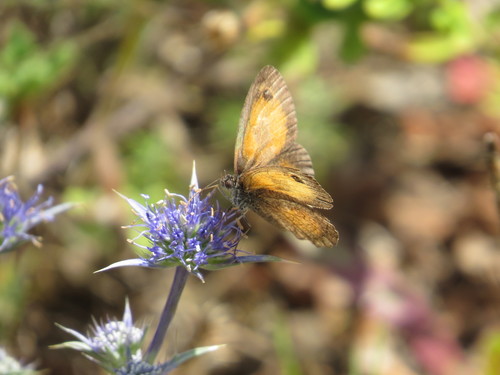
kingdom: Animalia
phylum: Arthropoda
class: Insecta
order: Lepidoptera
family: Nymphalidae
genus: Pyronia
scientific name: Pyronia
